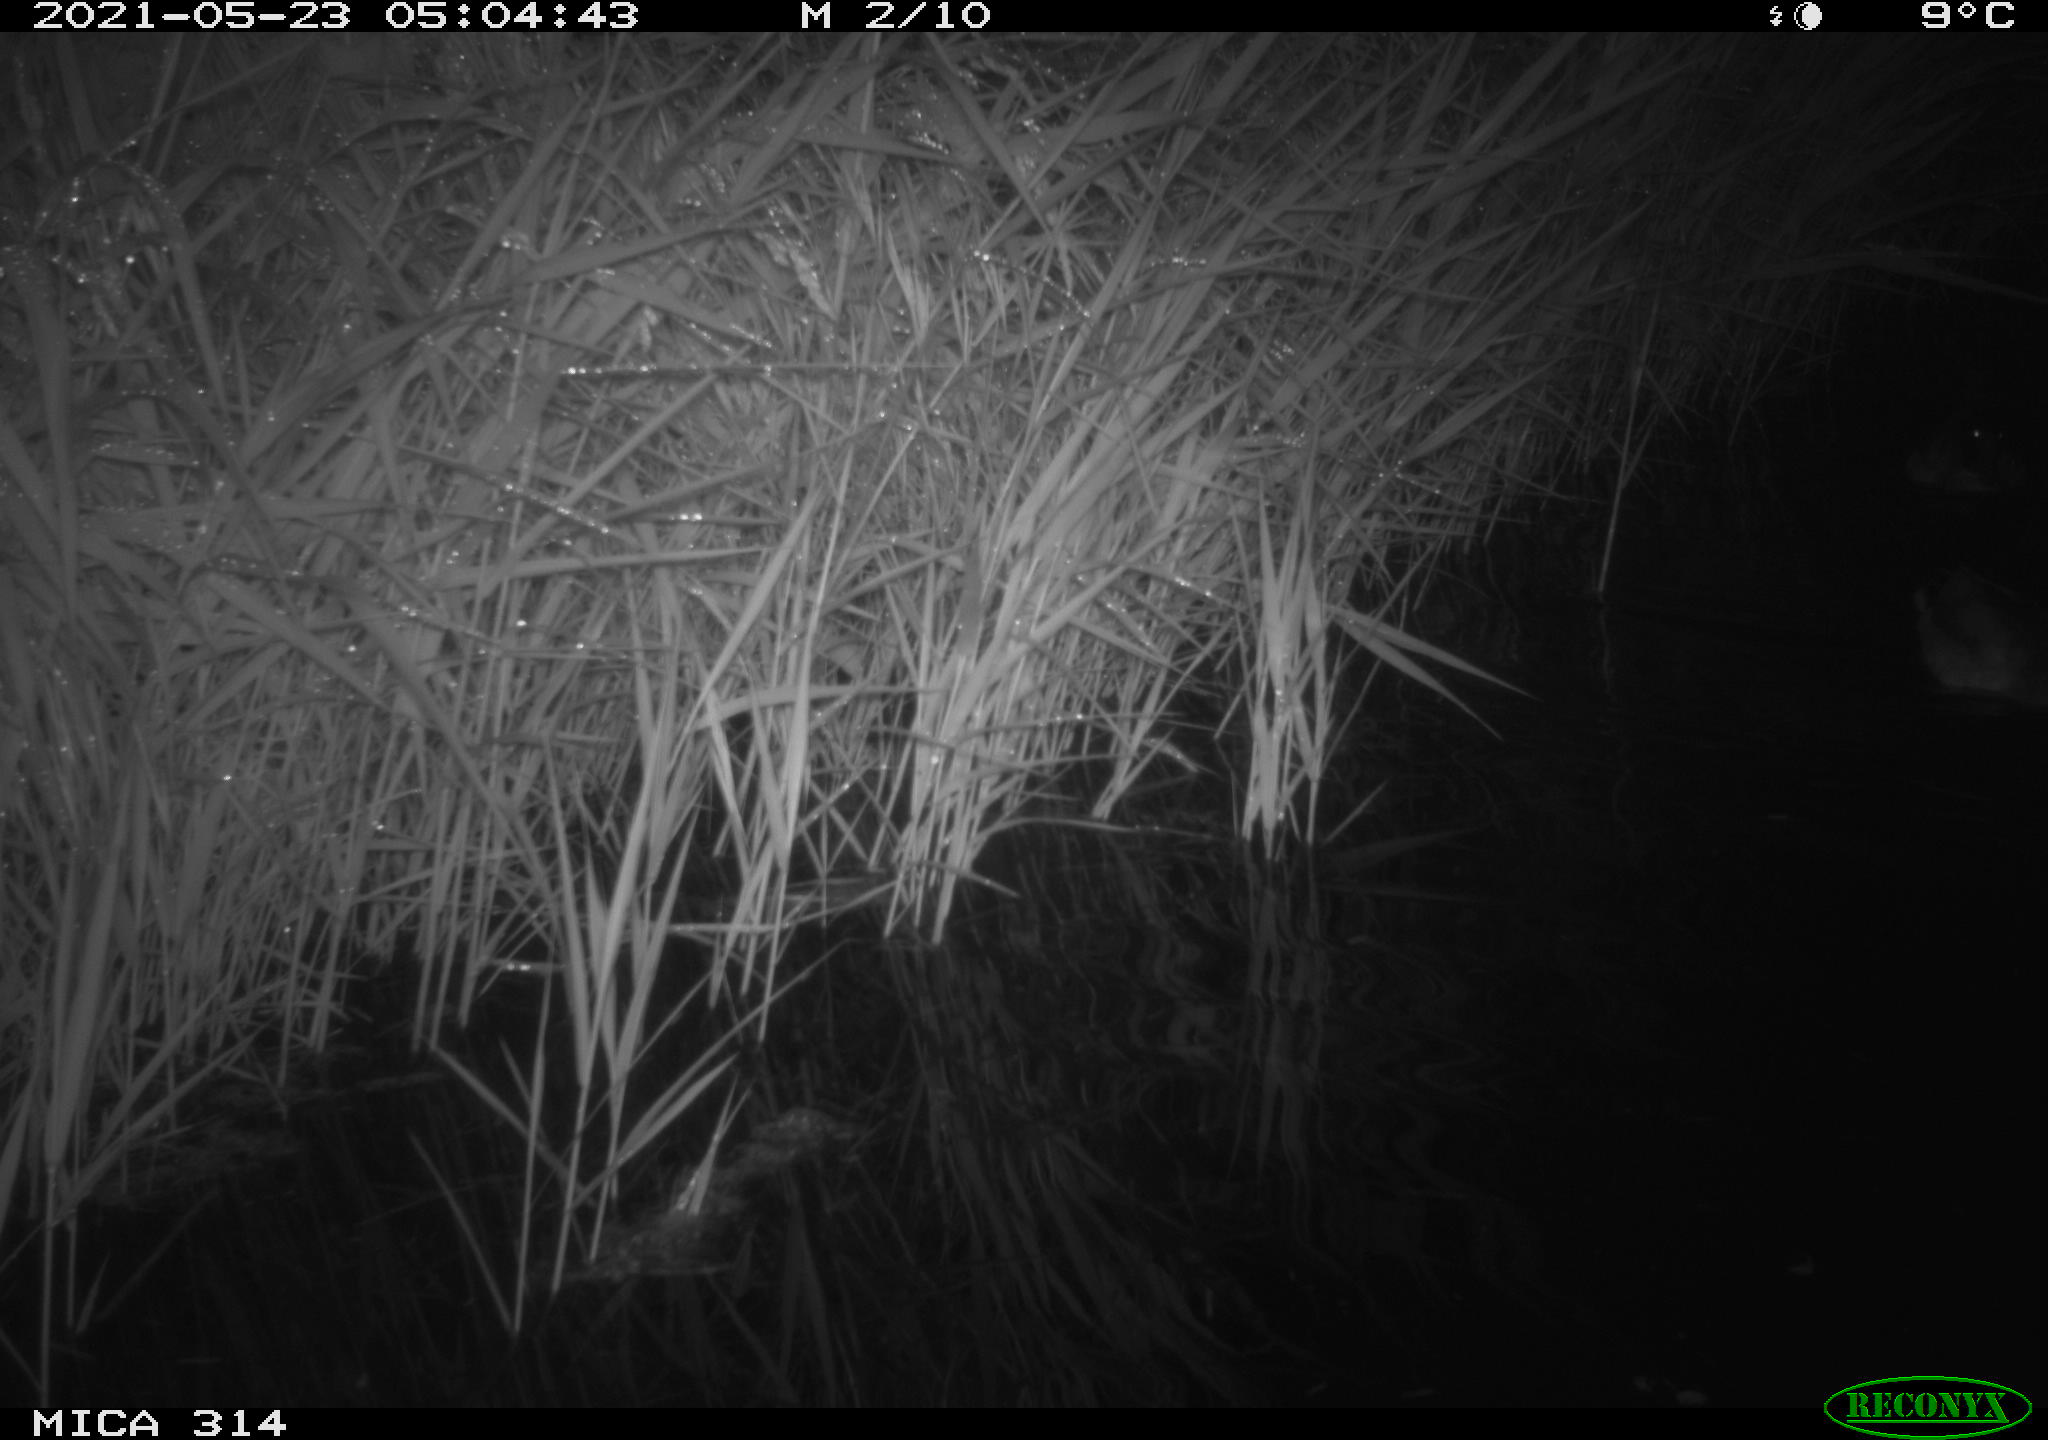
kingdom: Animalia
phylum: Chordata
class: Aves
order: Anseriformes
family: Anatidae
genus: Anas
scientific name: Anas platyrhynchos
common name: Mallard
